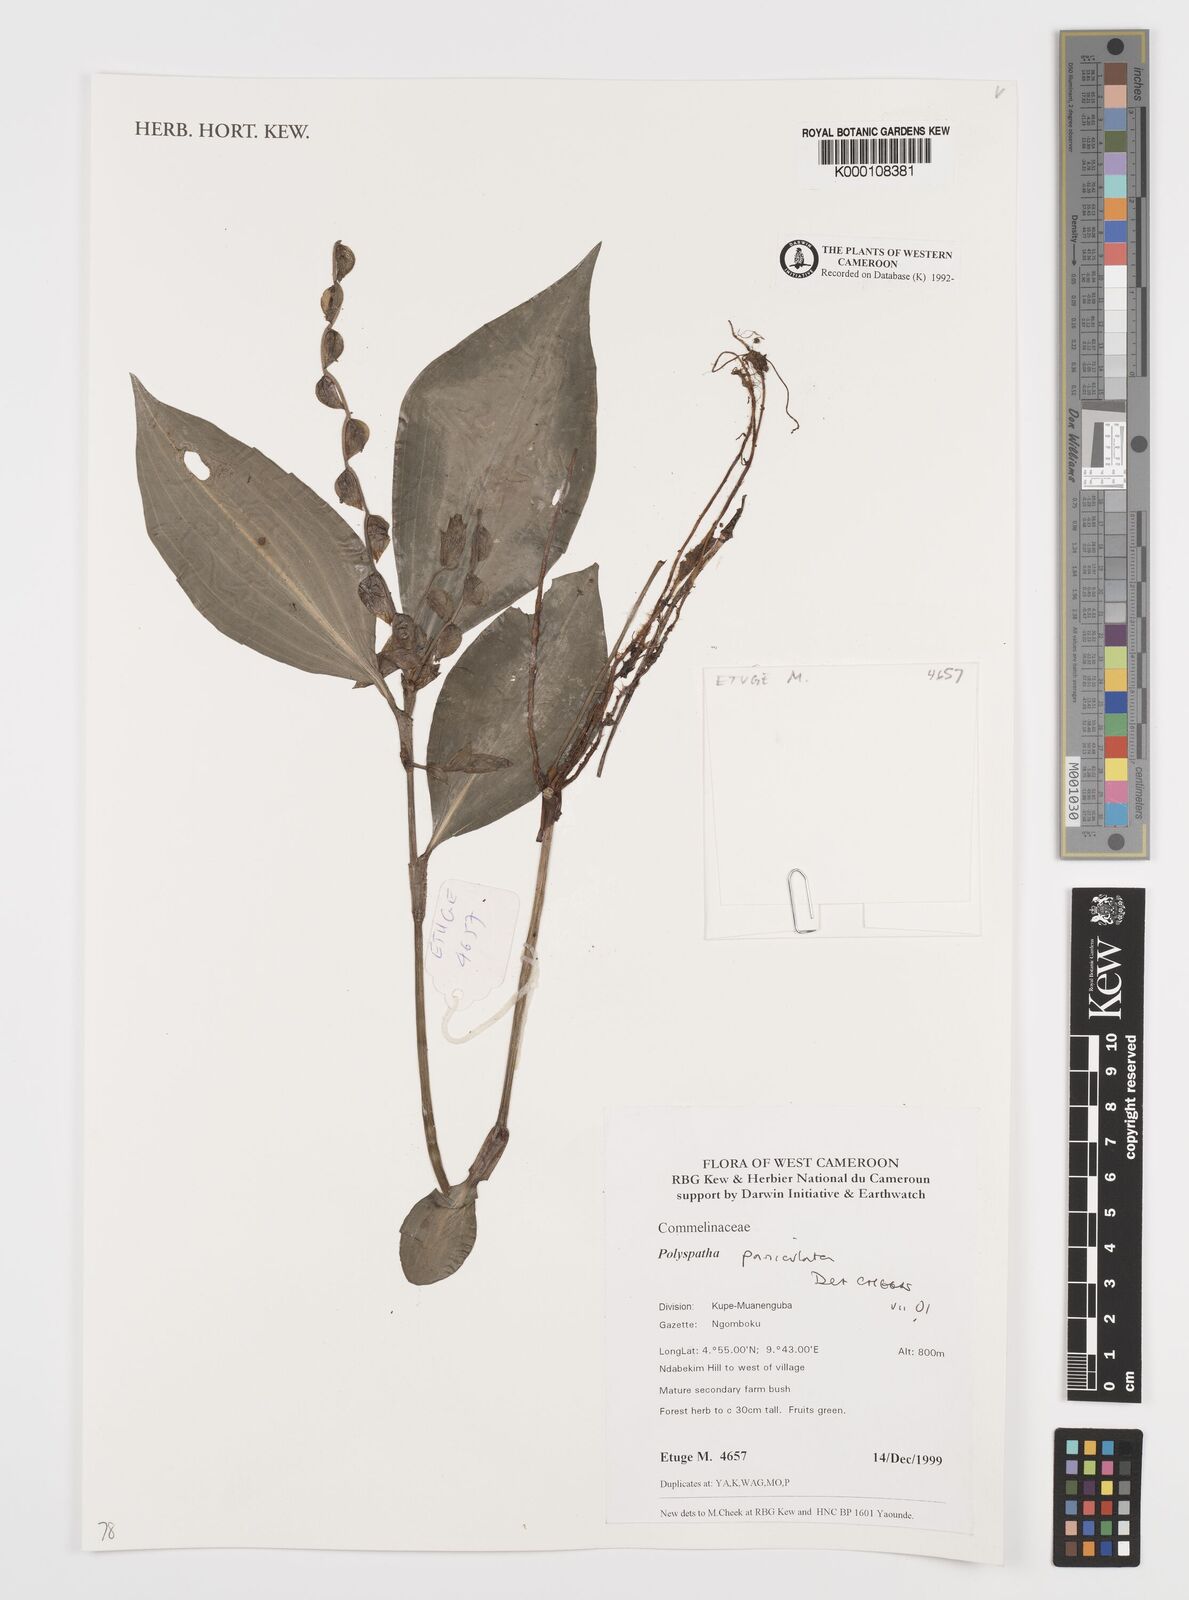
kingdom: Plantae
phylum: Tracheophyta
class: Liliopsida
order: Commelinales
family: Commelinaceae
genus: Polyspatha
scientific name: Polyspatha paniculata
